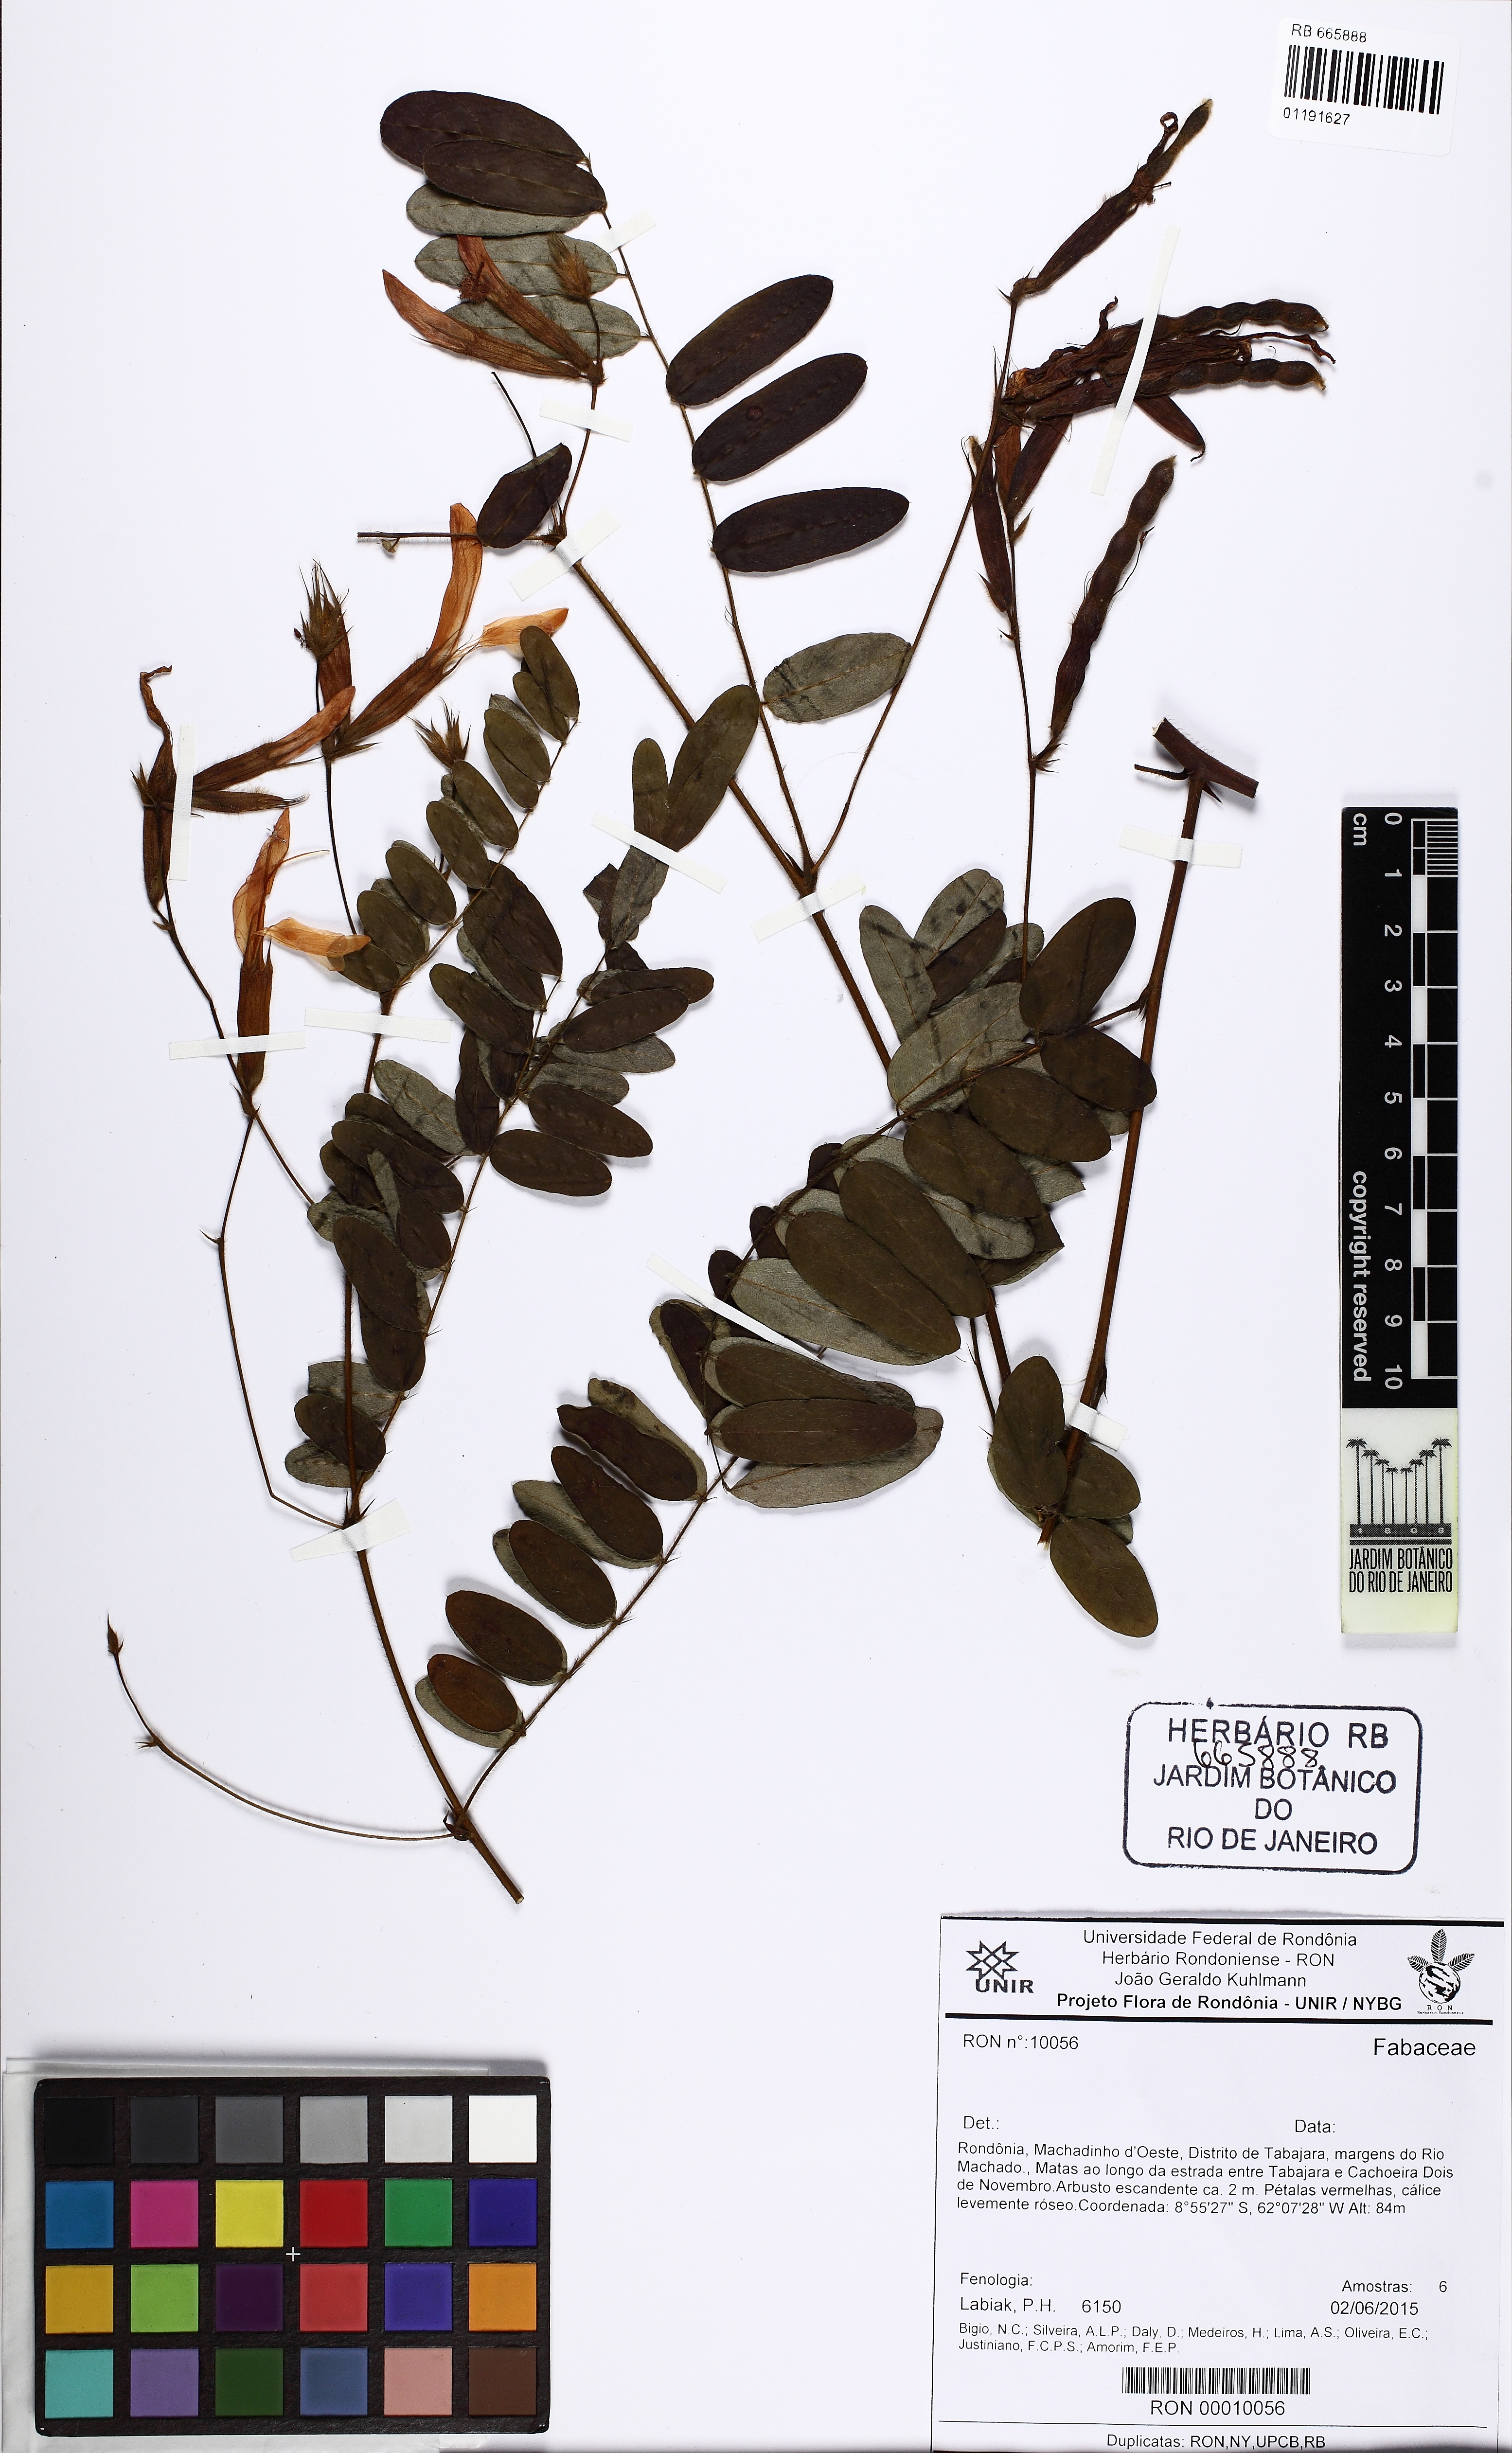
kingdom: Plantae
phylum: Tracheophyta
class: Magnoliopsida
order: Fabales
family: Fabaceae
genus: Barbieria
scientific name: Barbieria pinnata
